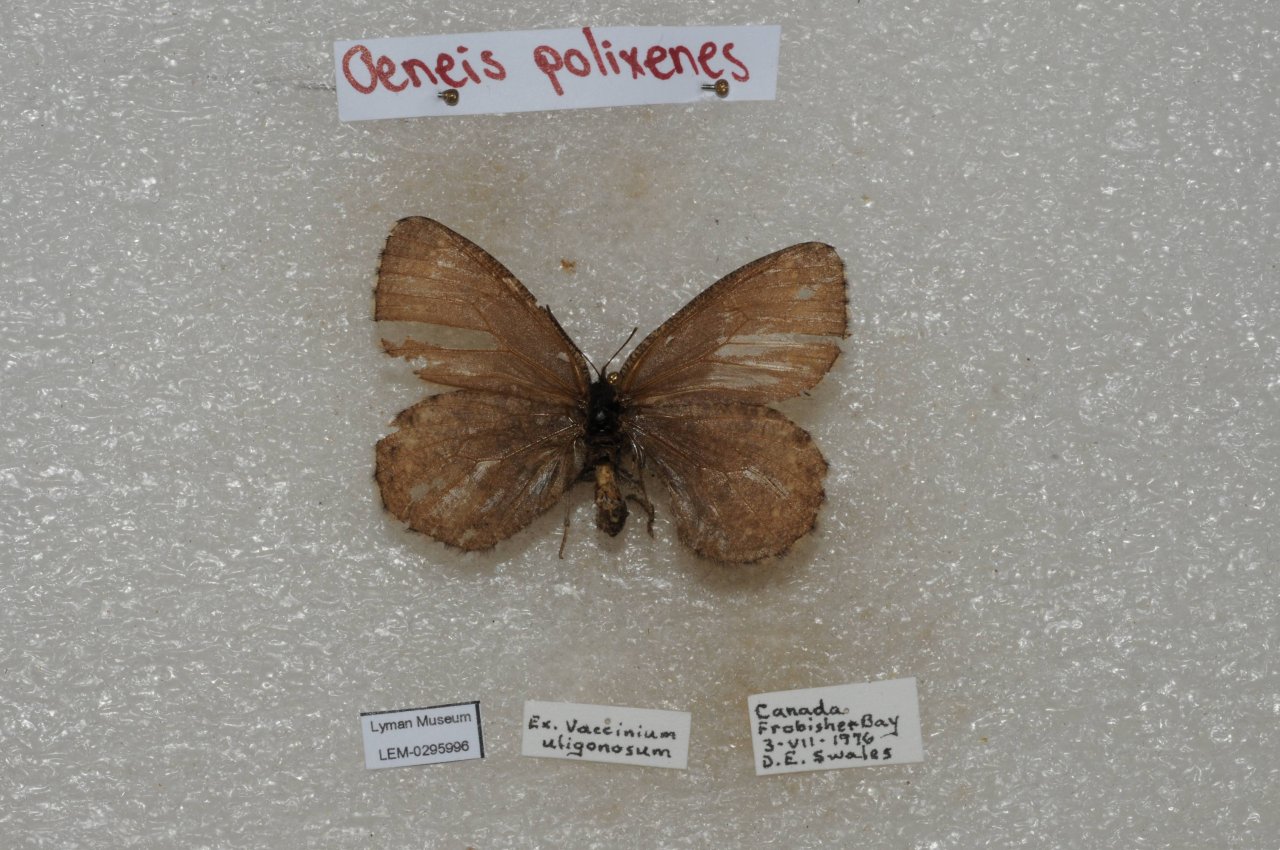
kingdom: Animalia
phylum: Arthropoda
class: Insecta
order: Lepidoptera
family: Nymphalidae
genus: Oeneis
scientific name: Oeneis bore
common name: Polixenes Arctic
